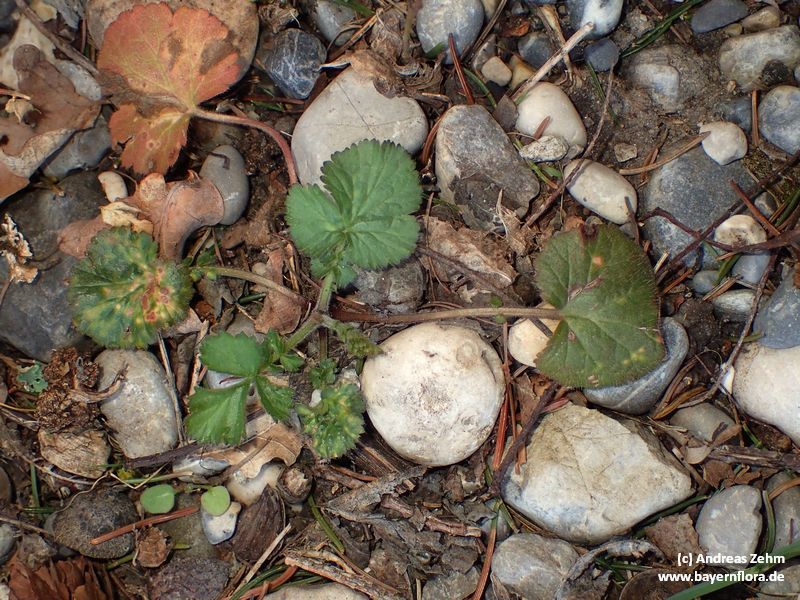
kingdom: Plantae
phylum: Tracheophyta
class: Magnoliopsida
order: Rosales
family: Rosaceae
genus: Geum
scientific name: Geum urbanum
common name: Wood avens
